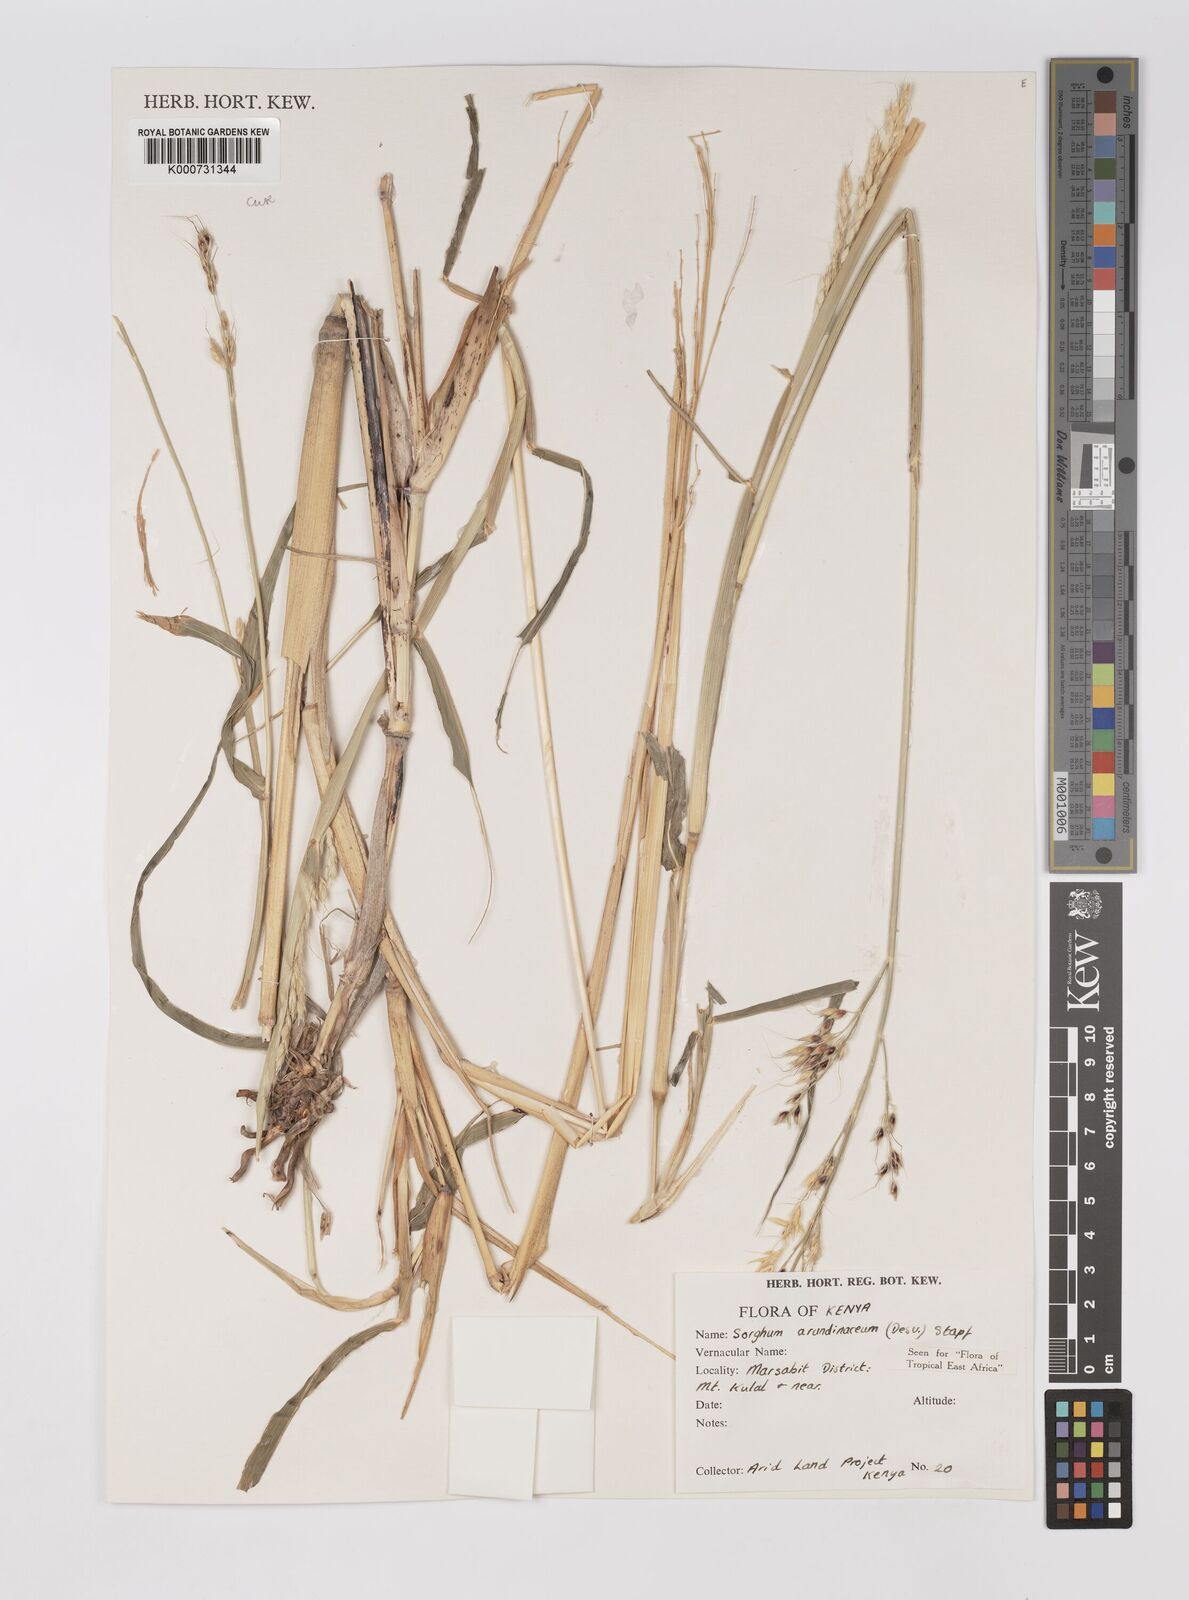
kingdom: Plantae
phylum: Tracheophyta
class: Liliopsida
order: Poales
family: Poaceae
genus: Sorghum
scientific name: Sorghum arundinaceum
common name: Sorghum
